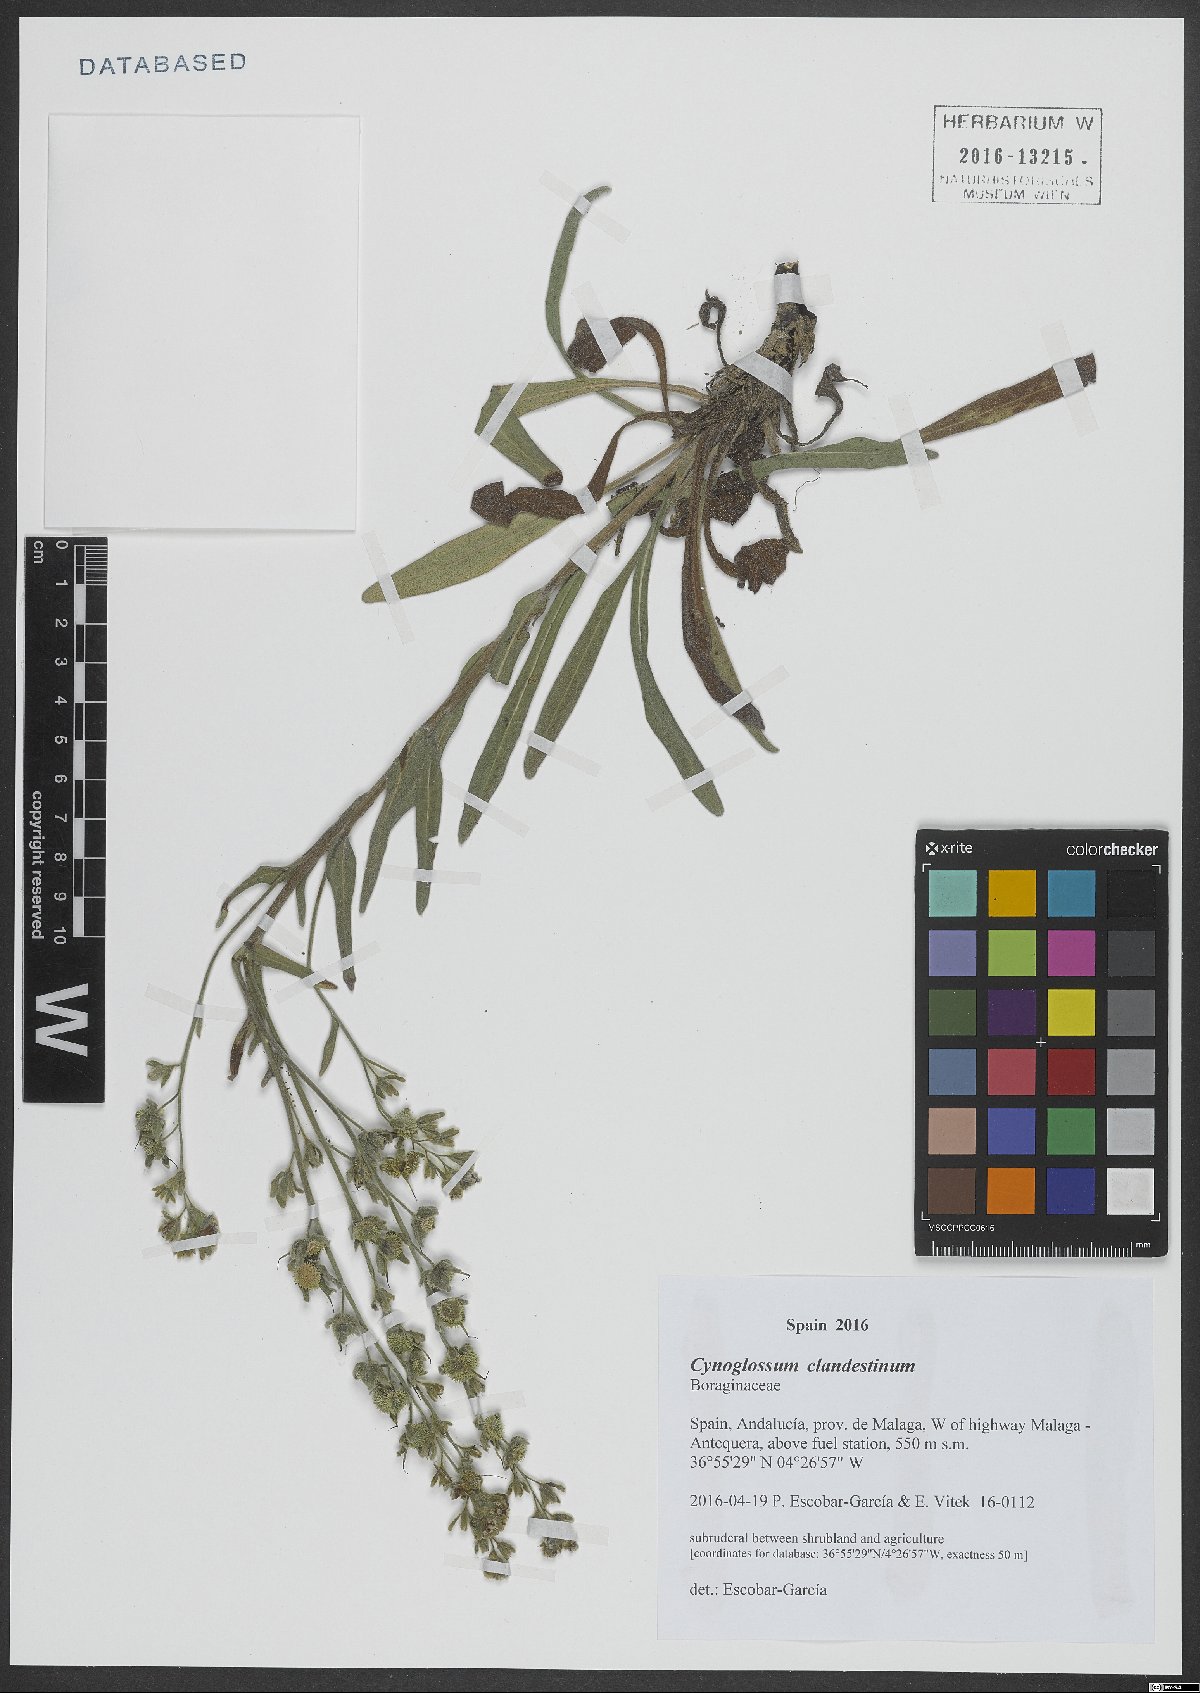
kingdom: Plantae
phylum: Tracheophyta
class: Magnoliopsida
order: Boraginales
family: Boraginaceae
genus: Cynoglossum
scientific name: Cynoglossum clandestinum
